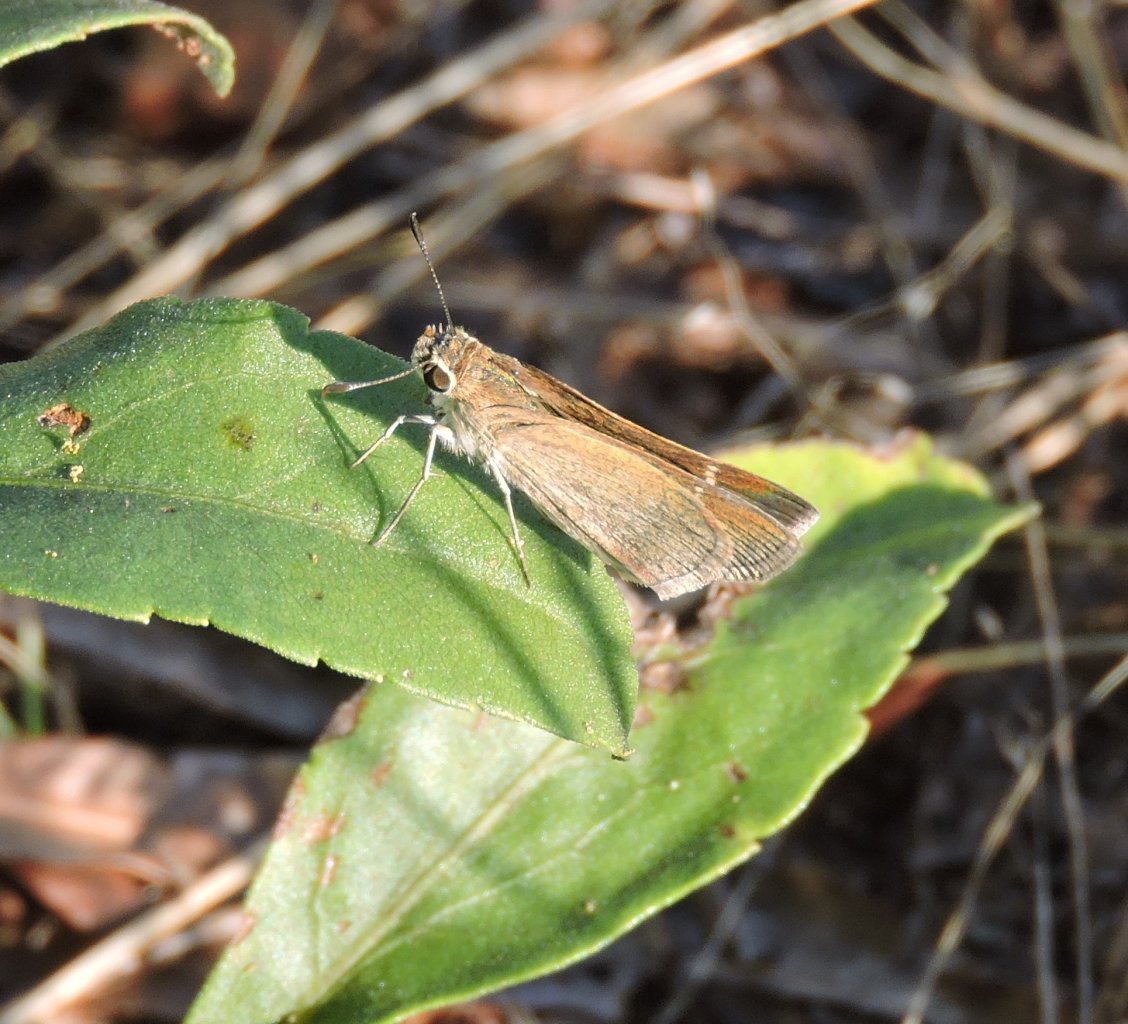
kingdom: Animalia
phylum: Arthropoda
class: Insecta
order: Lepidoptera
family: Hesperiidae
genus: Lerodea
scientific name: Lerodea eufala
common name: Eufala Skipper
